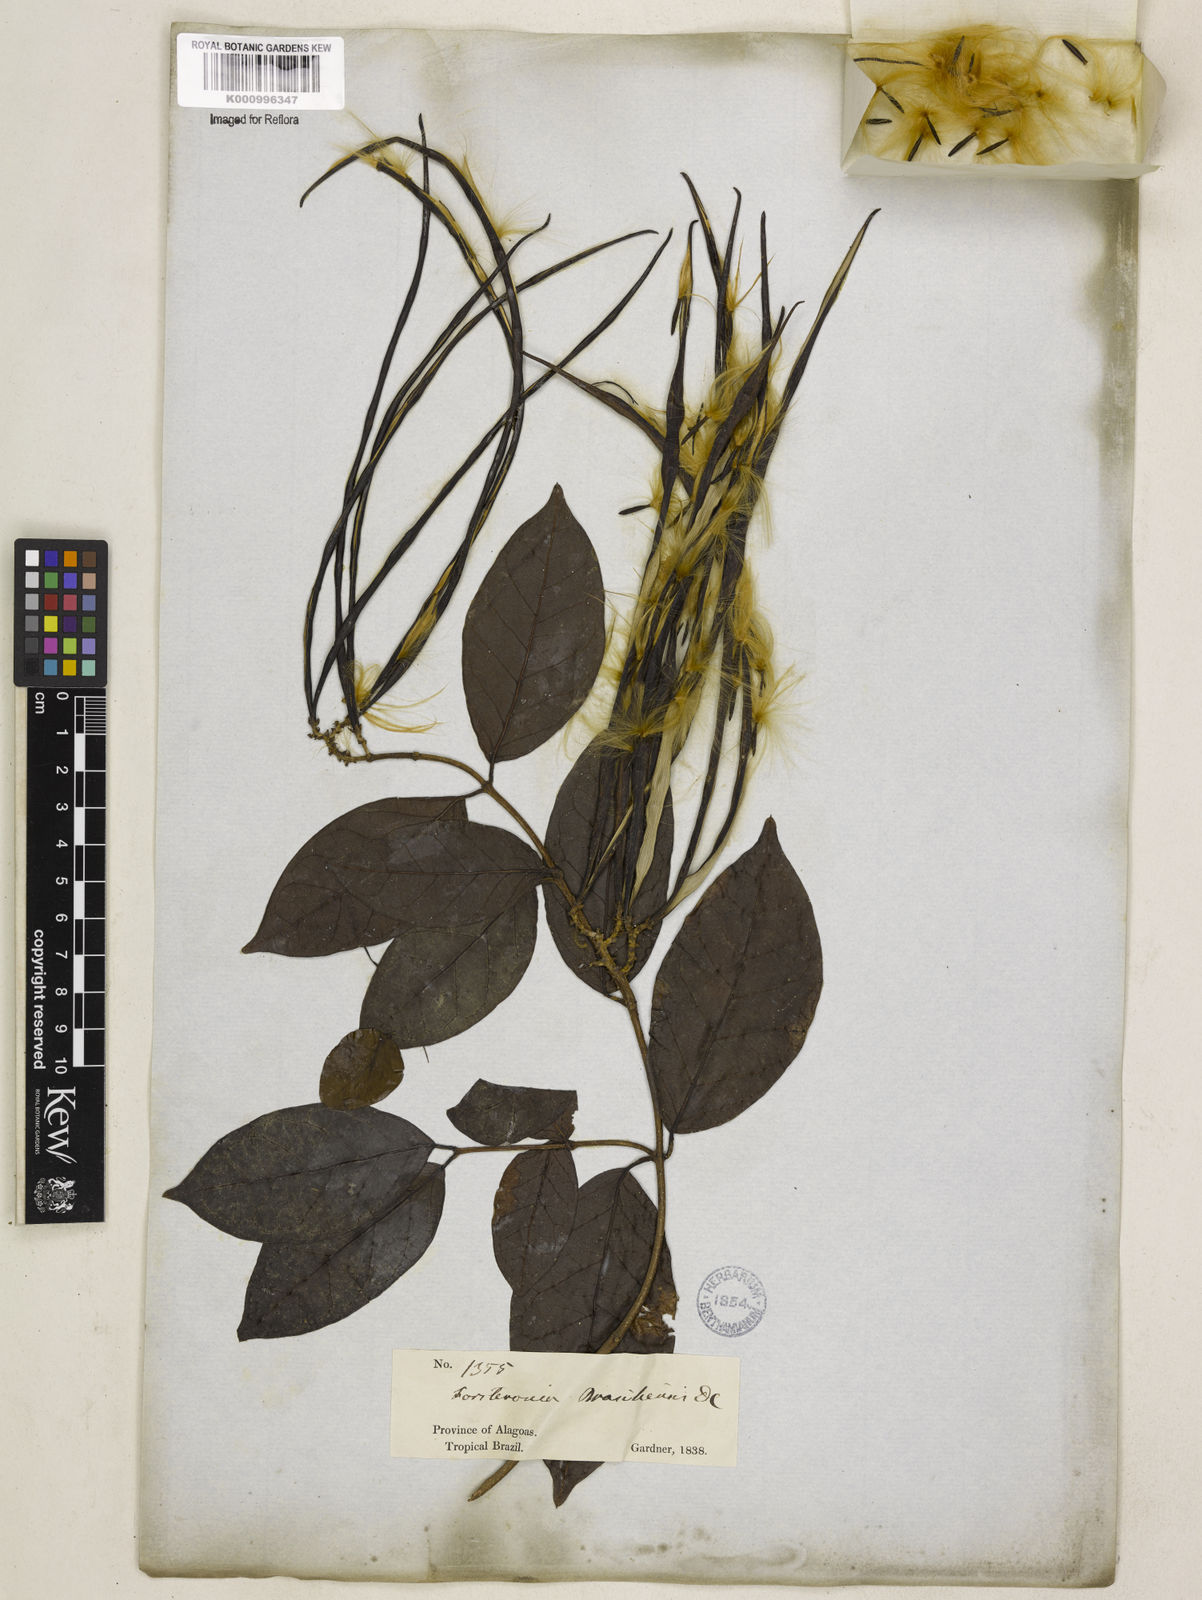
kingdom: Plantae
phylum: Tracheophyta
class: Magnoliopsida
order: Gentianales
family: Apocynaceae
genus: Forsteronia
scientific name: Forsteronia leptocarpa
